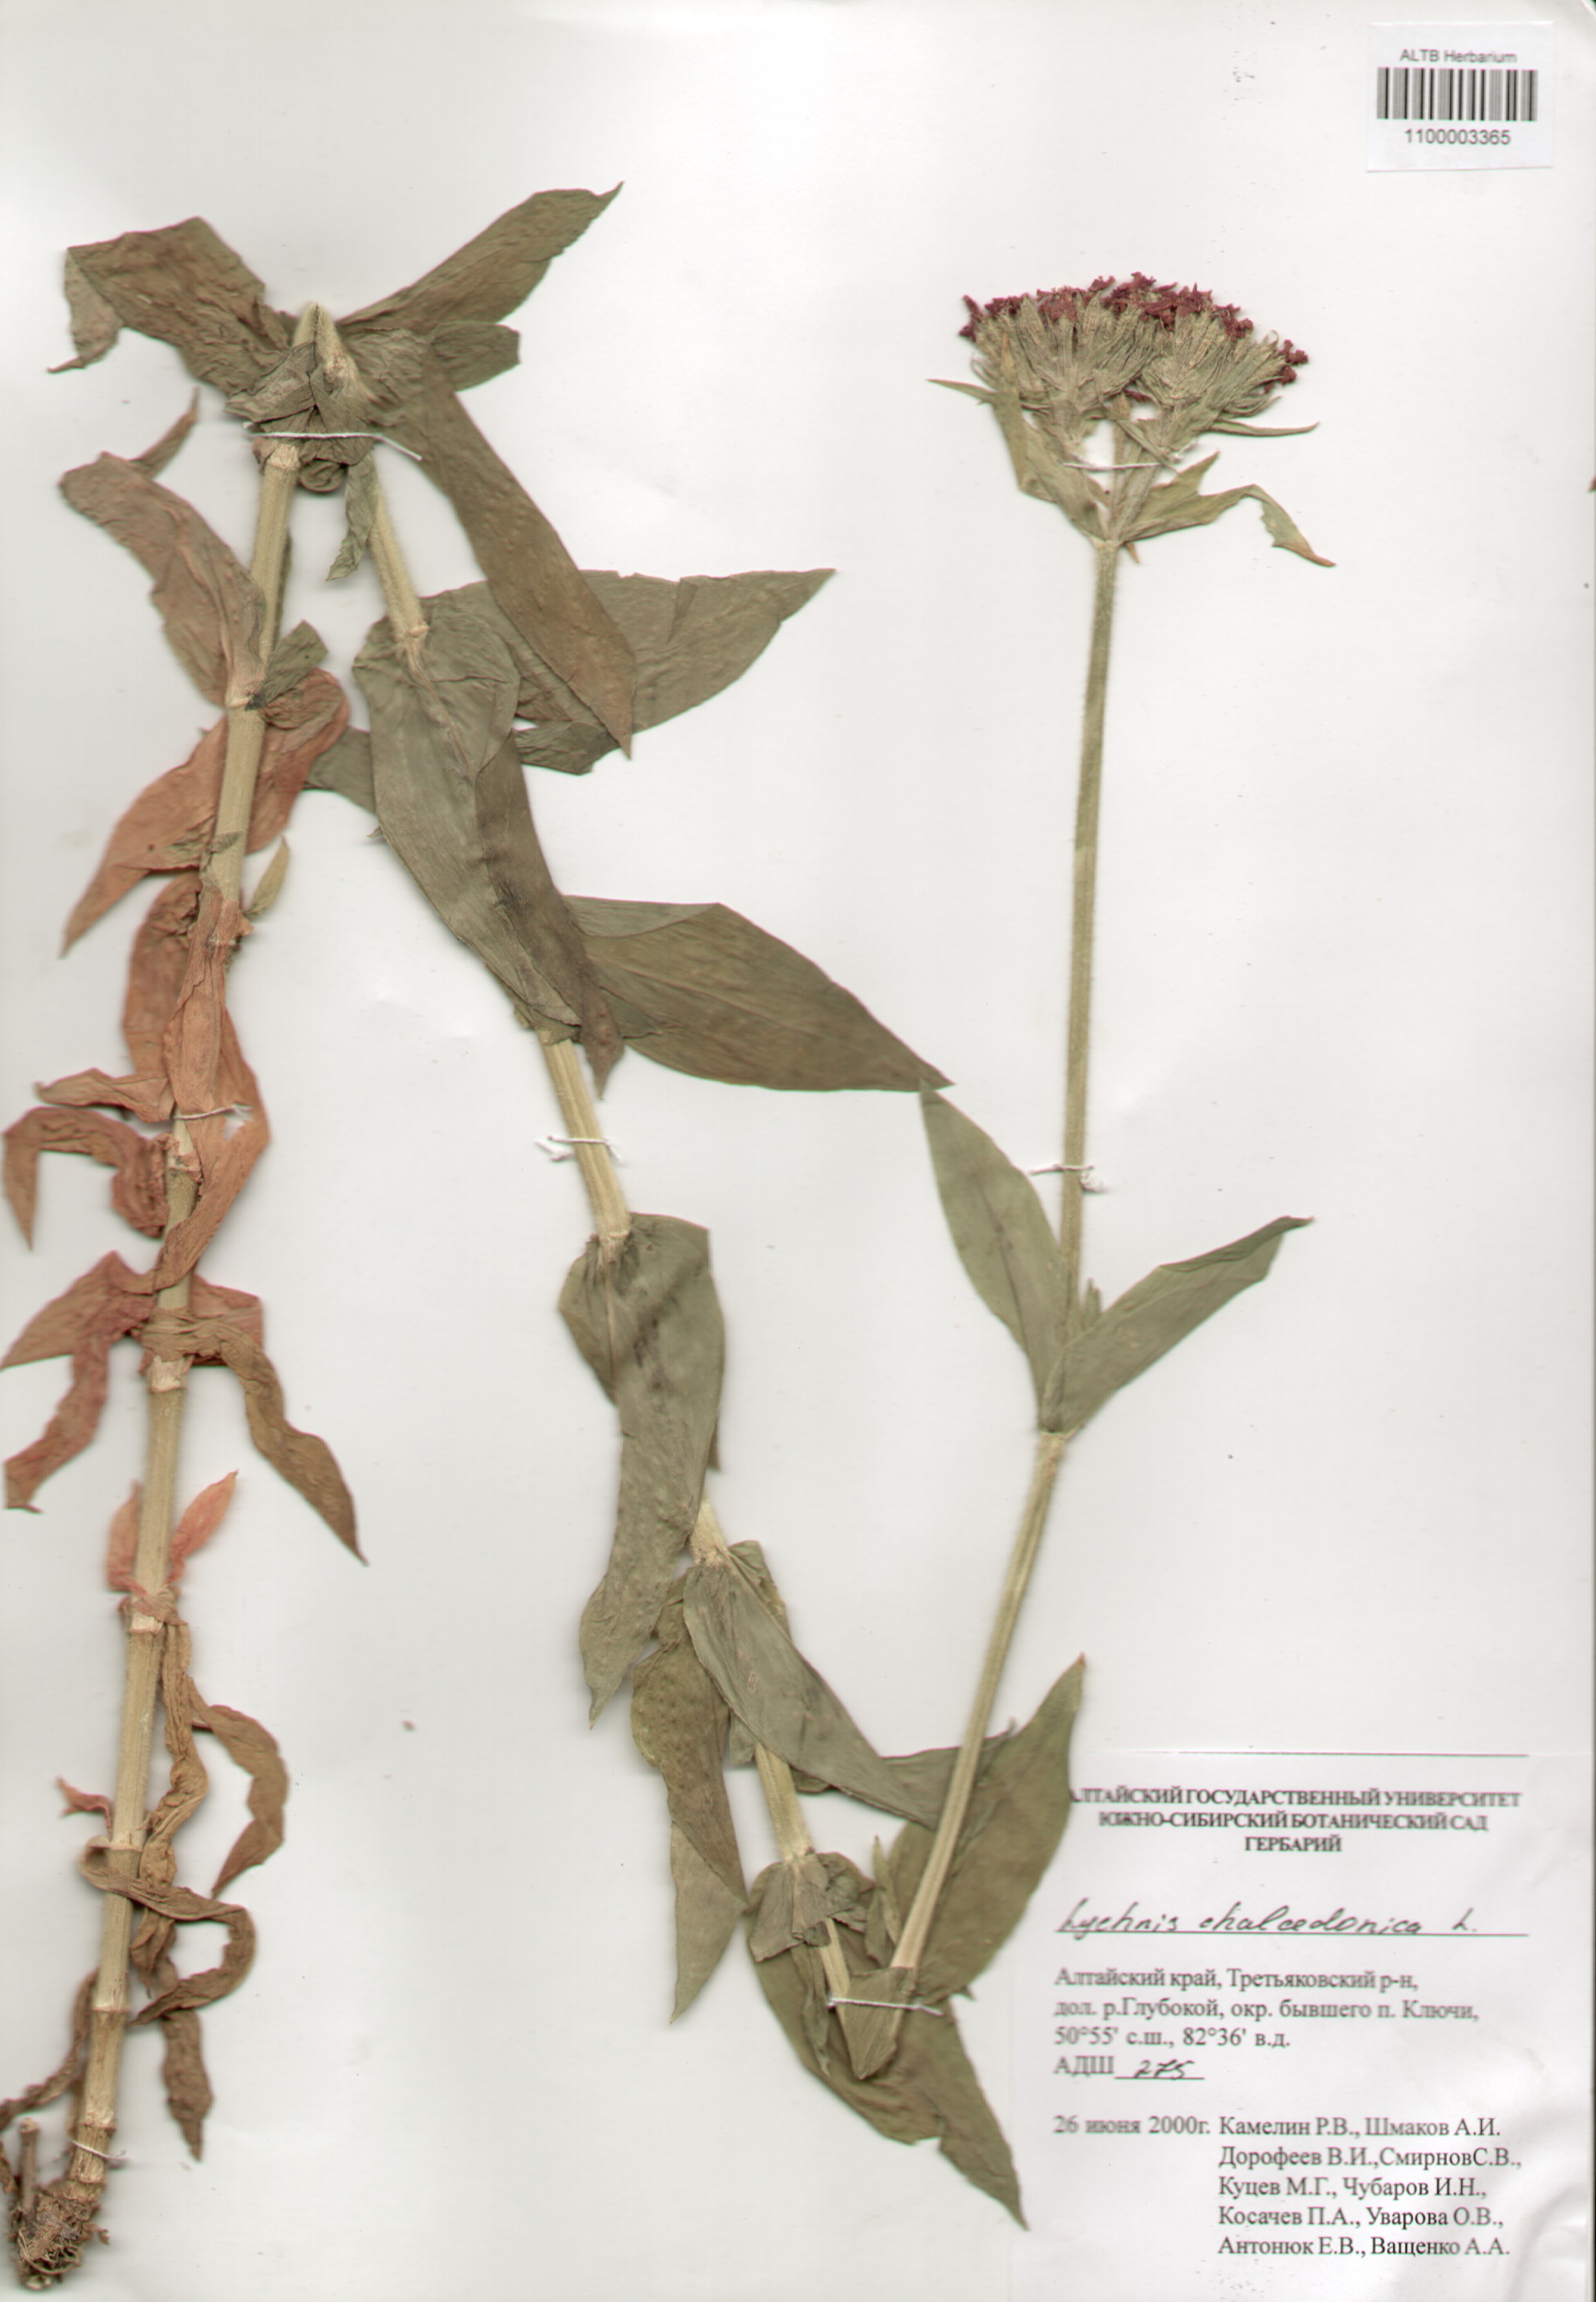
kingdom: Plantae
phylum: Tracheophyta
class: Magnoliopsida
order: Caryophyllales
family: Caryophyllaceae
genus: Silene
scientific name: Silene chalcedonica
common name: Maltese-cross
